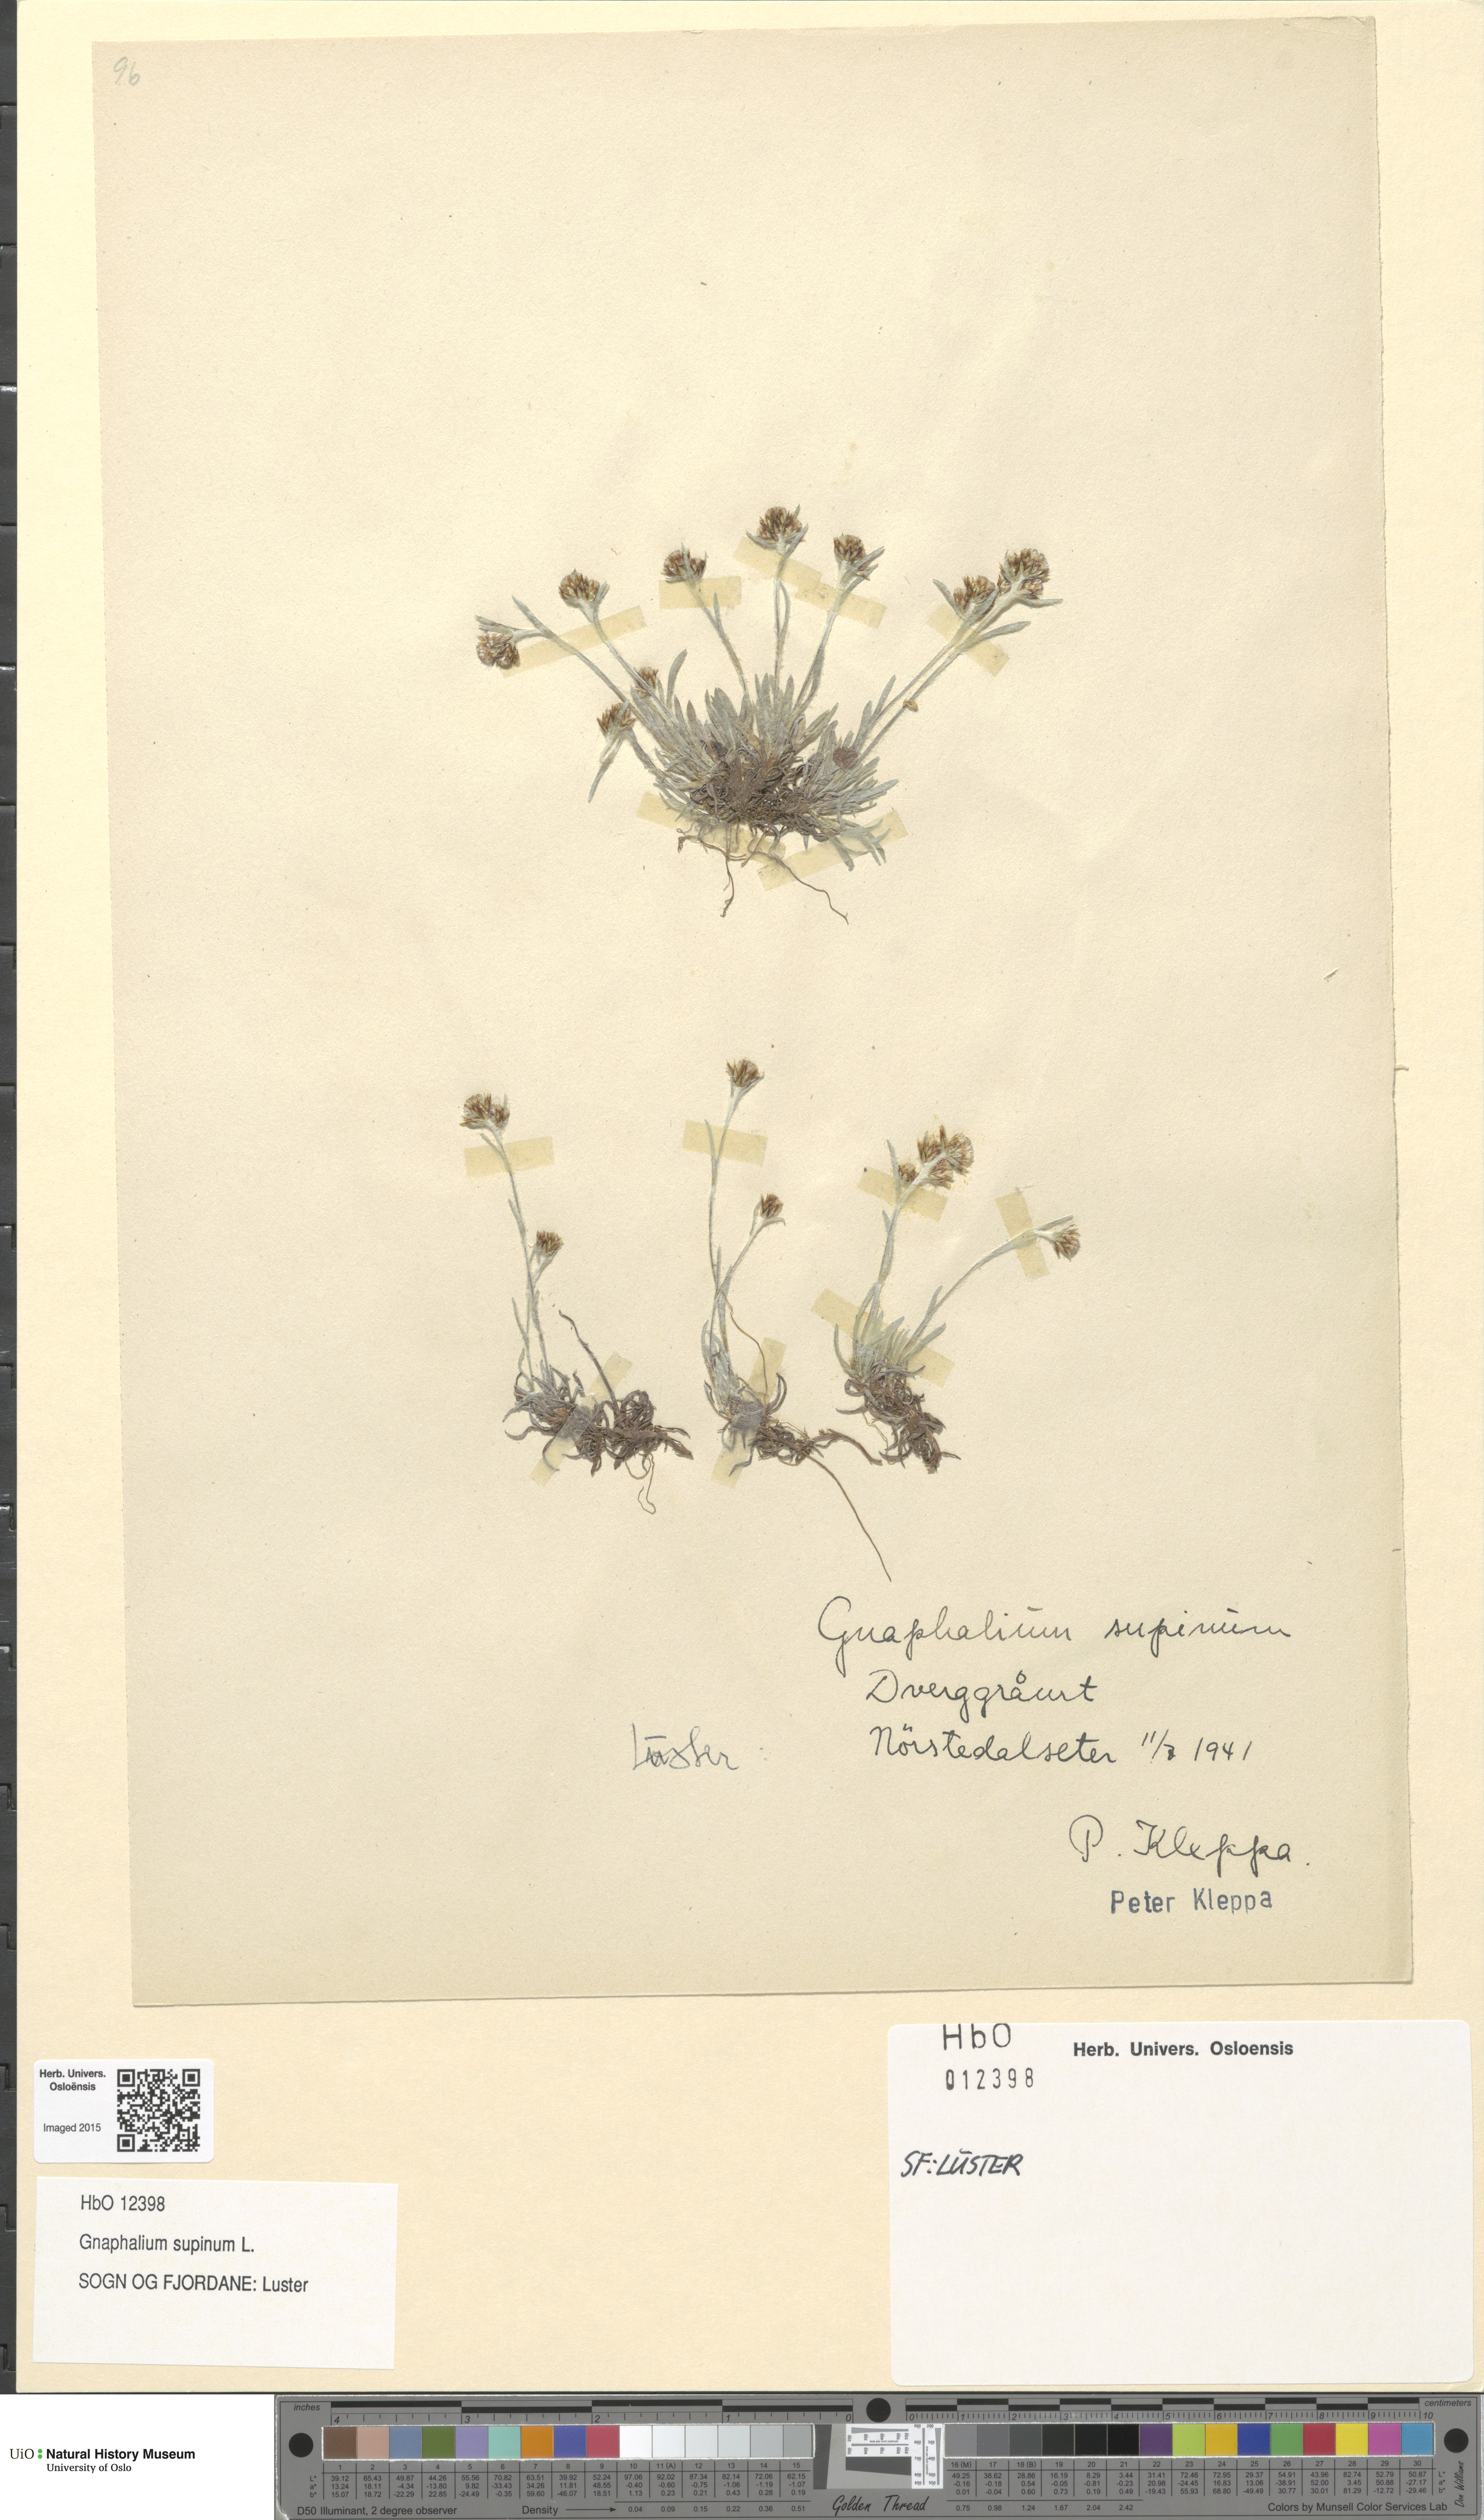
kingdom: Plantae
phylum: Tracheophyta
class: Magnoliopsida
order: Asterales
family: Asteraceae
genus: Omalotheca
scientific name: Omalotheca supina
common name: Alpine arctic-cudweed
